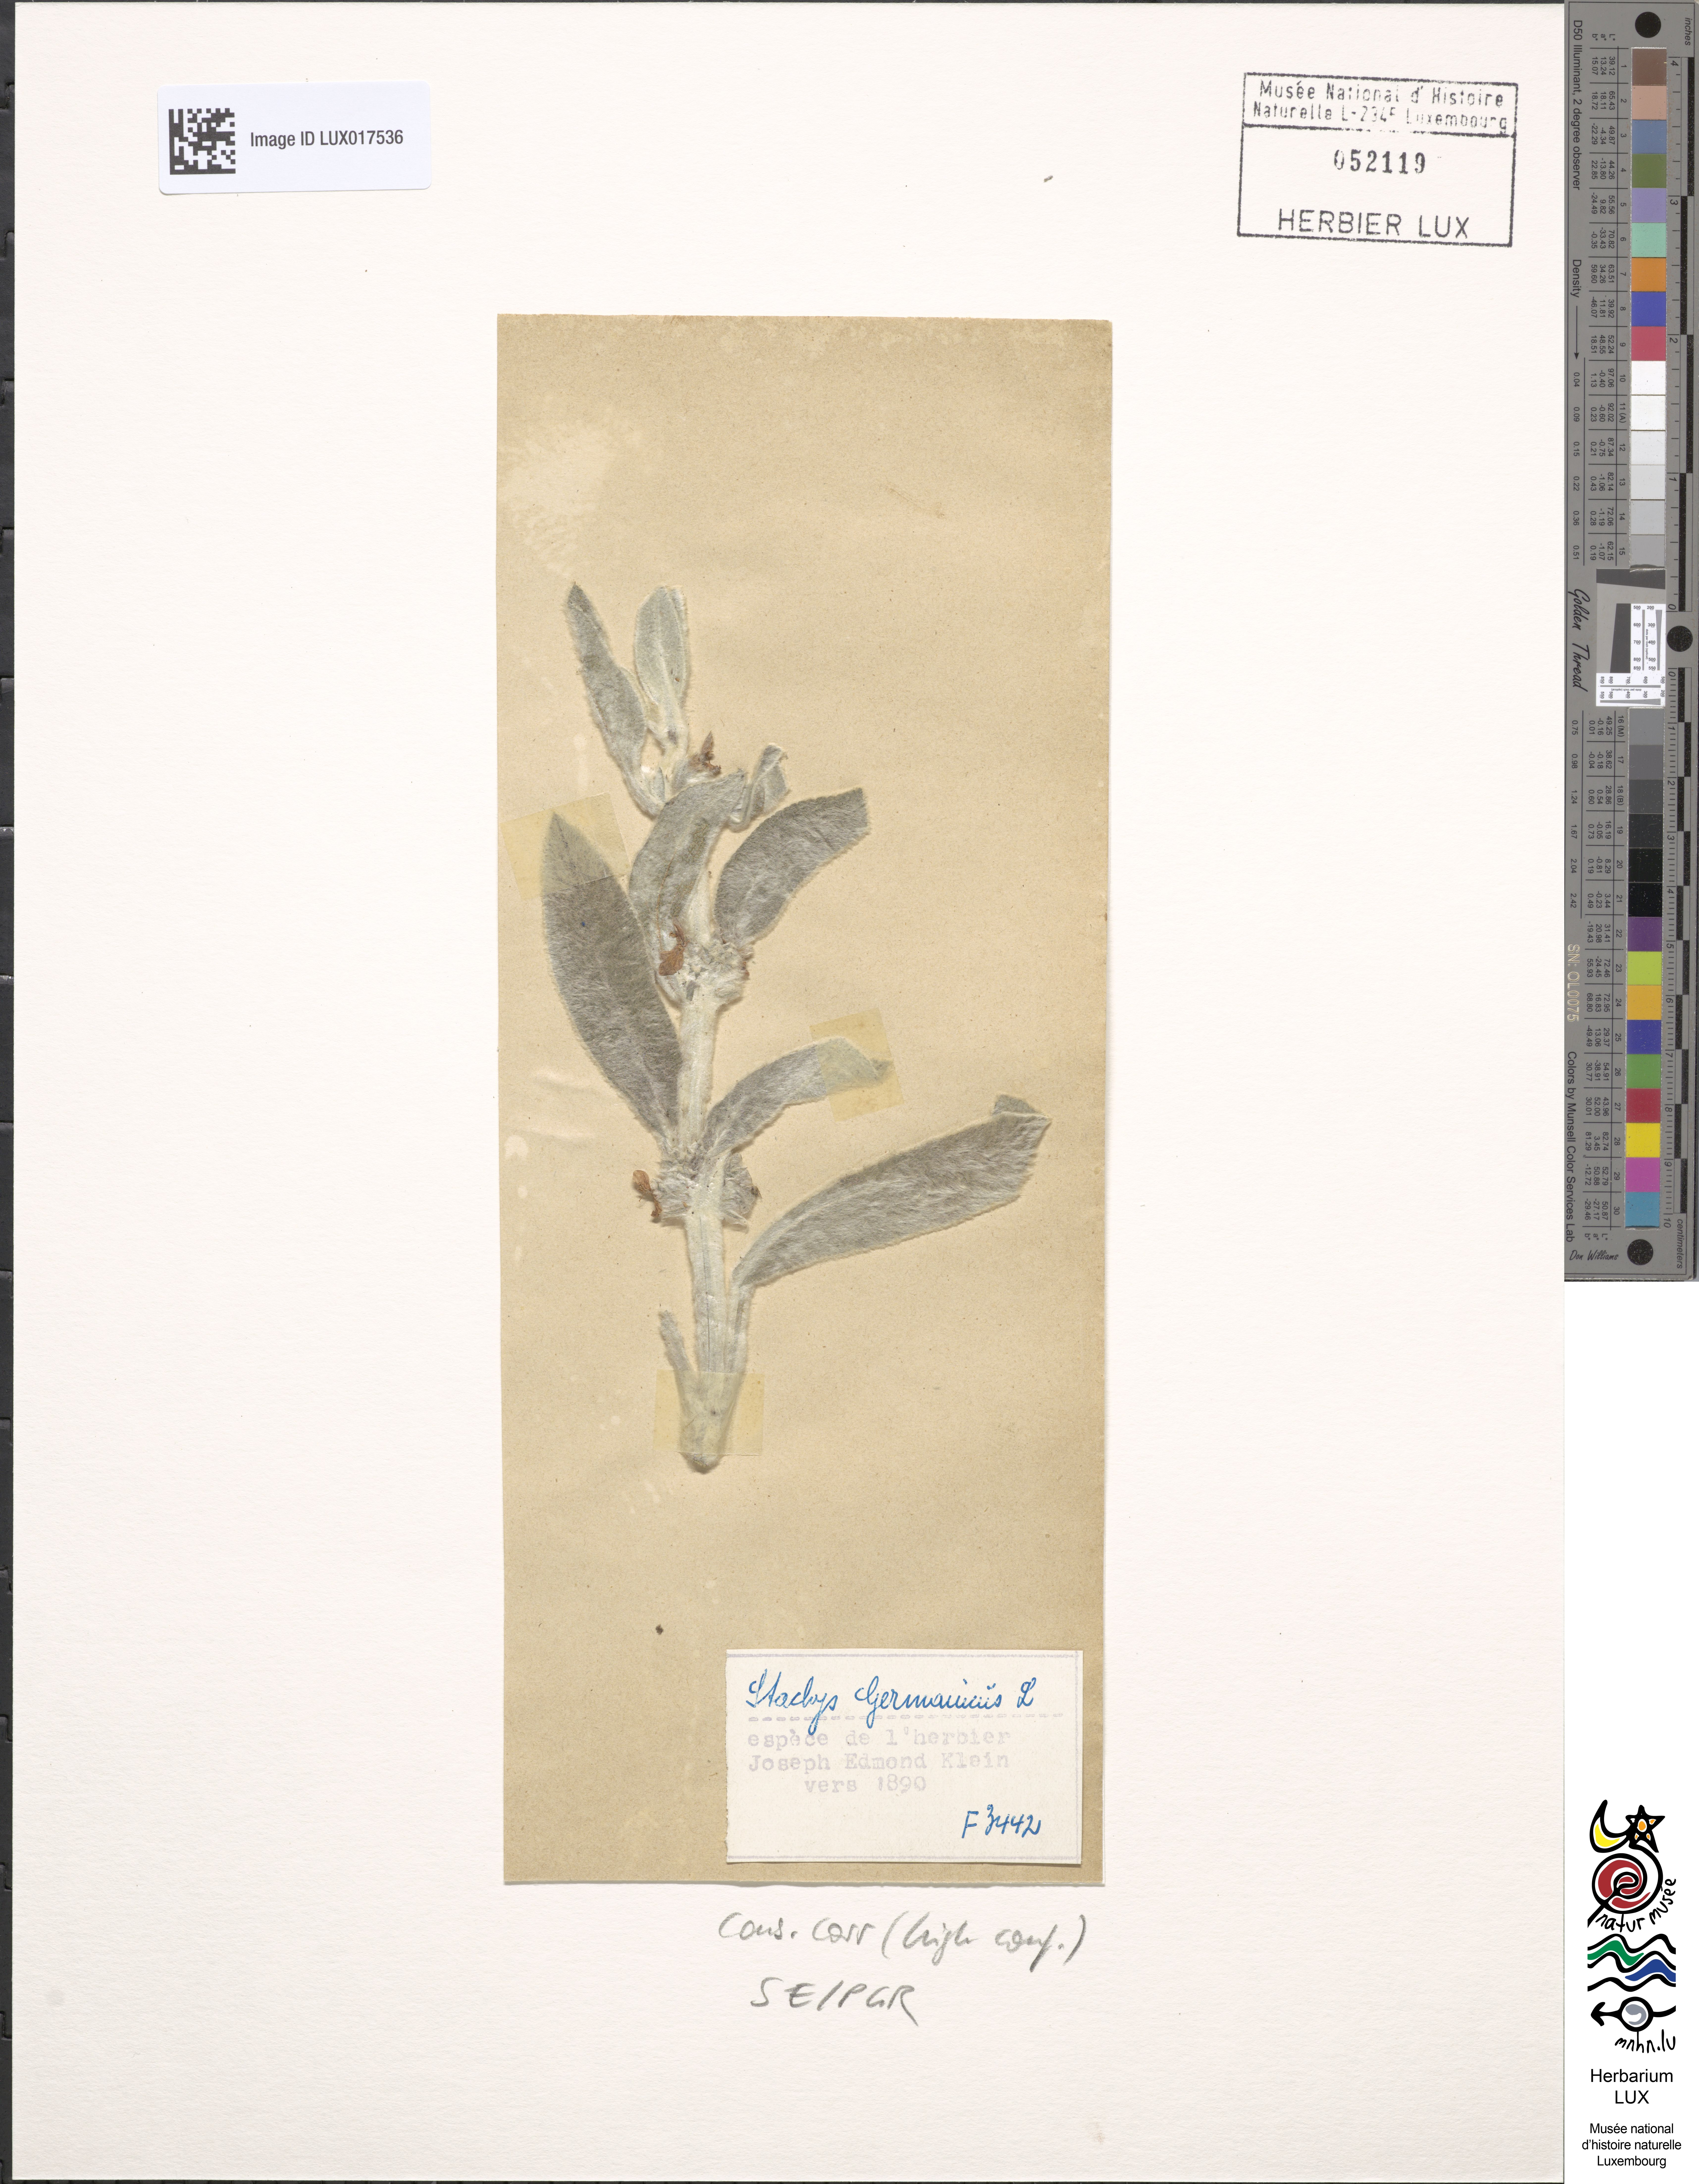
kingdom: Plantae
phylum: Tracheophyta
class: Magnoliopsida
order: Lamiales
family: Lamiaceae
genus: Stachys
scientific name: Stachys germanica
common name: Downy woundwort
